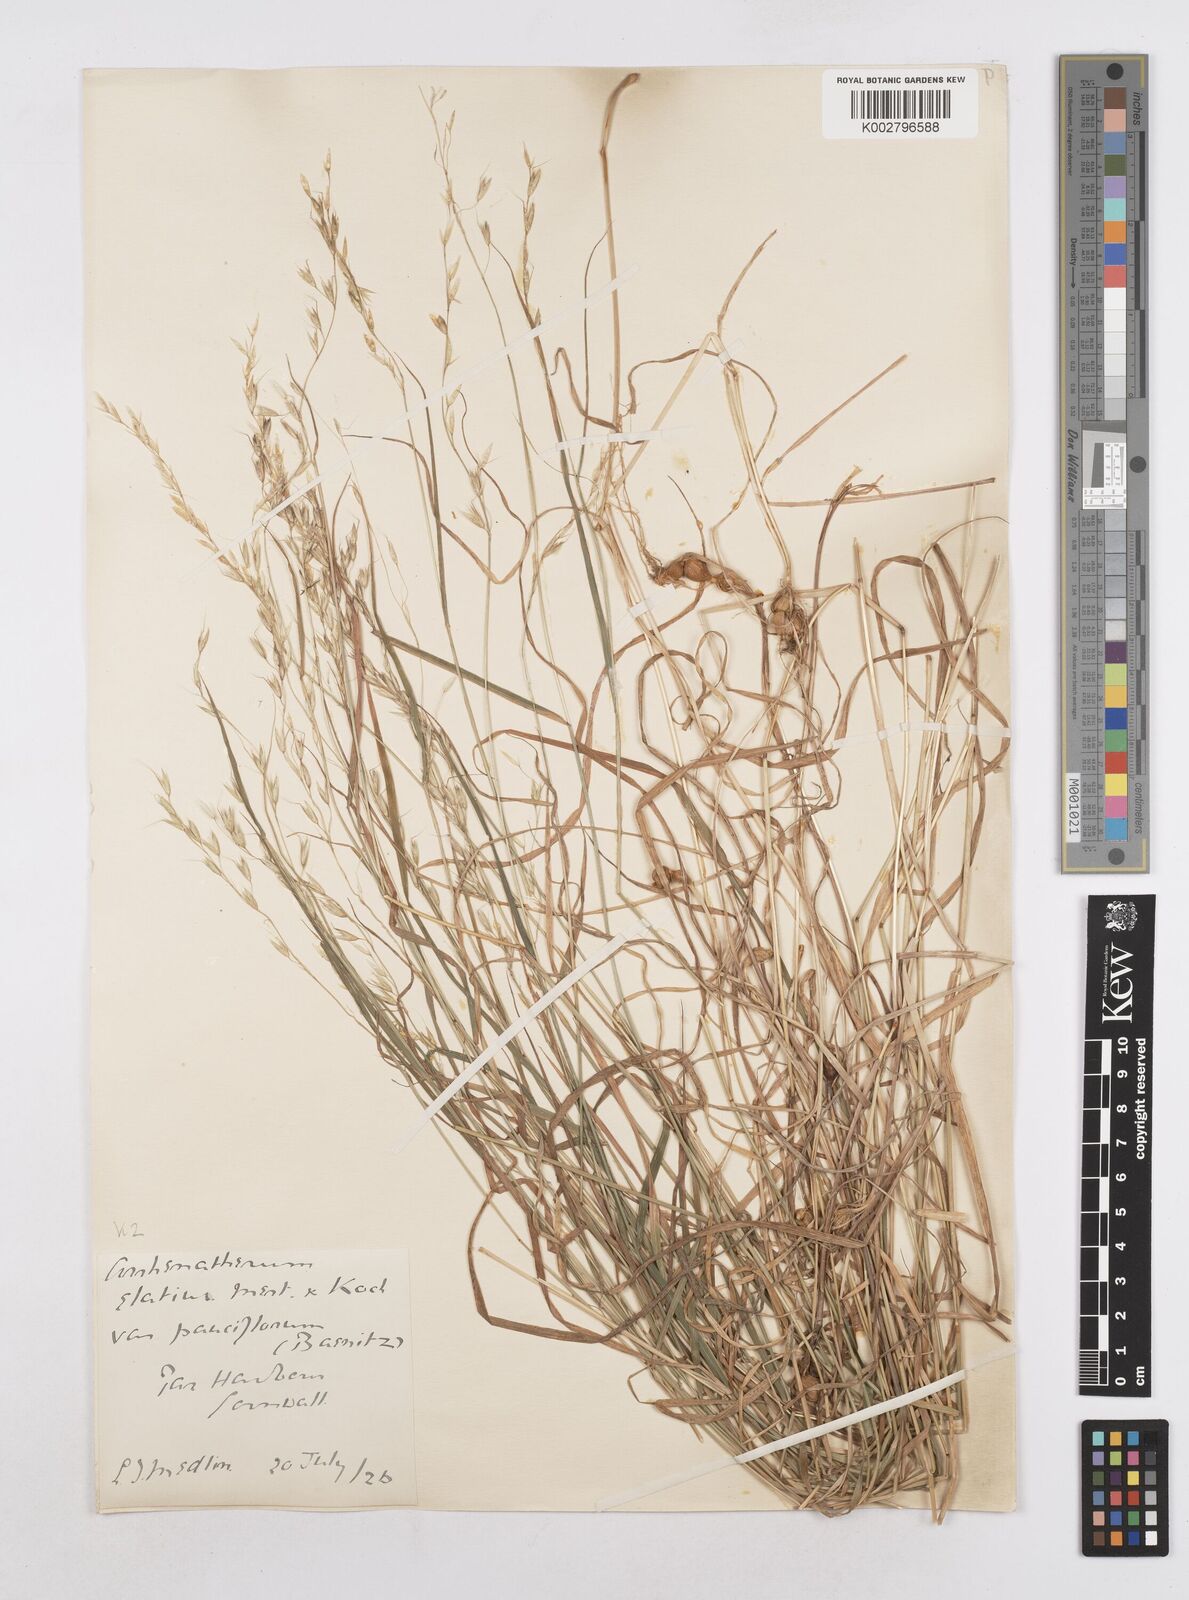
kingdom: Plantae
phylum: Tracheophyta
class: Liliopsida
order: Poales
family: Poaceae
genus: Arrhenatherum
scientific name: Arrhenatherum elatius
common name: Tall oatgrass
